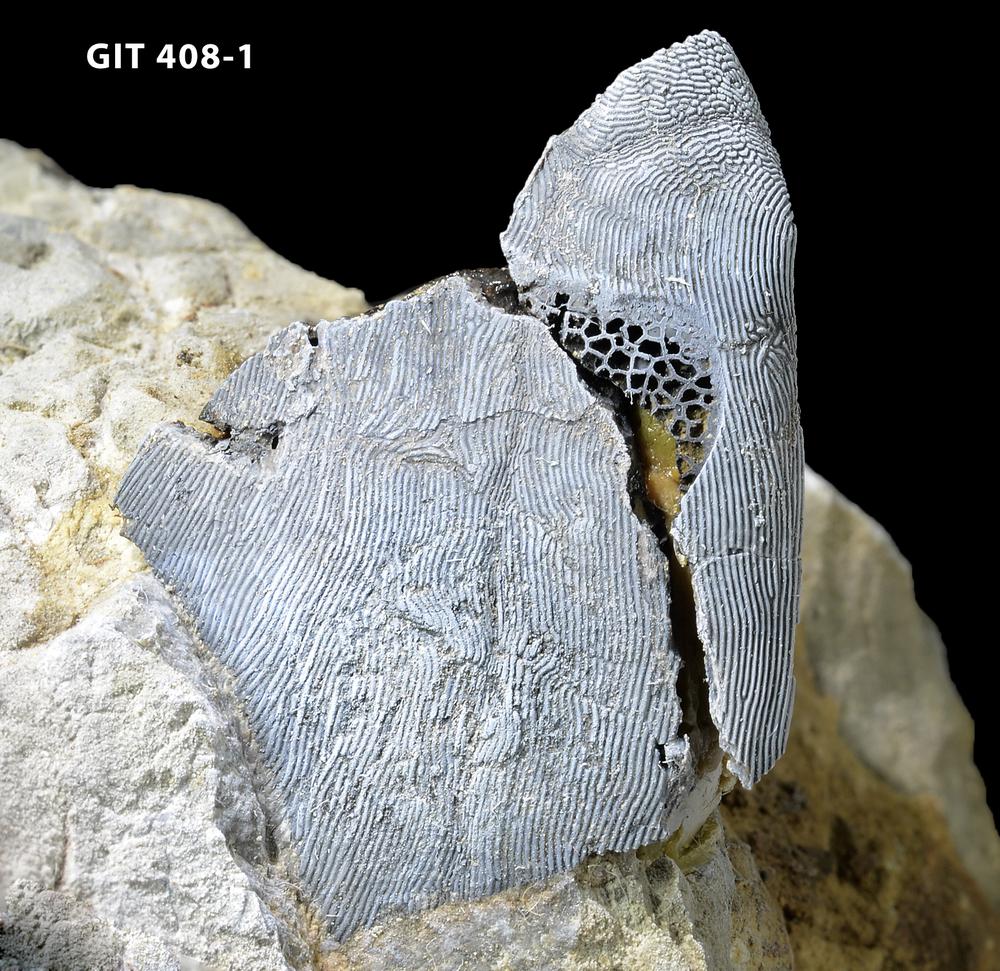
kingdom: Animalia
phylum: Chordata
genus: Archegonaspis
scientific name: Archegonaspis
